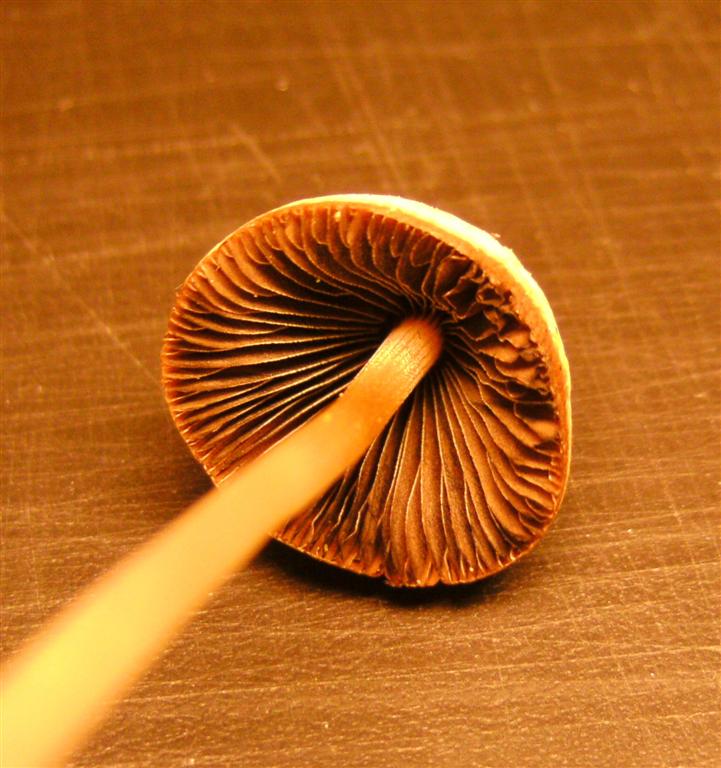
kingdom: Fungi
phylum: Basidiomycota
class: Agaricomycetes
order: Agaricales
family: Psathyrellaceae
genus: Parasola
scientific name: Parasola conopilea
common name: kegle-hjulhat
